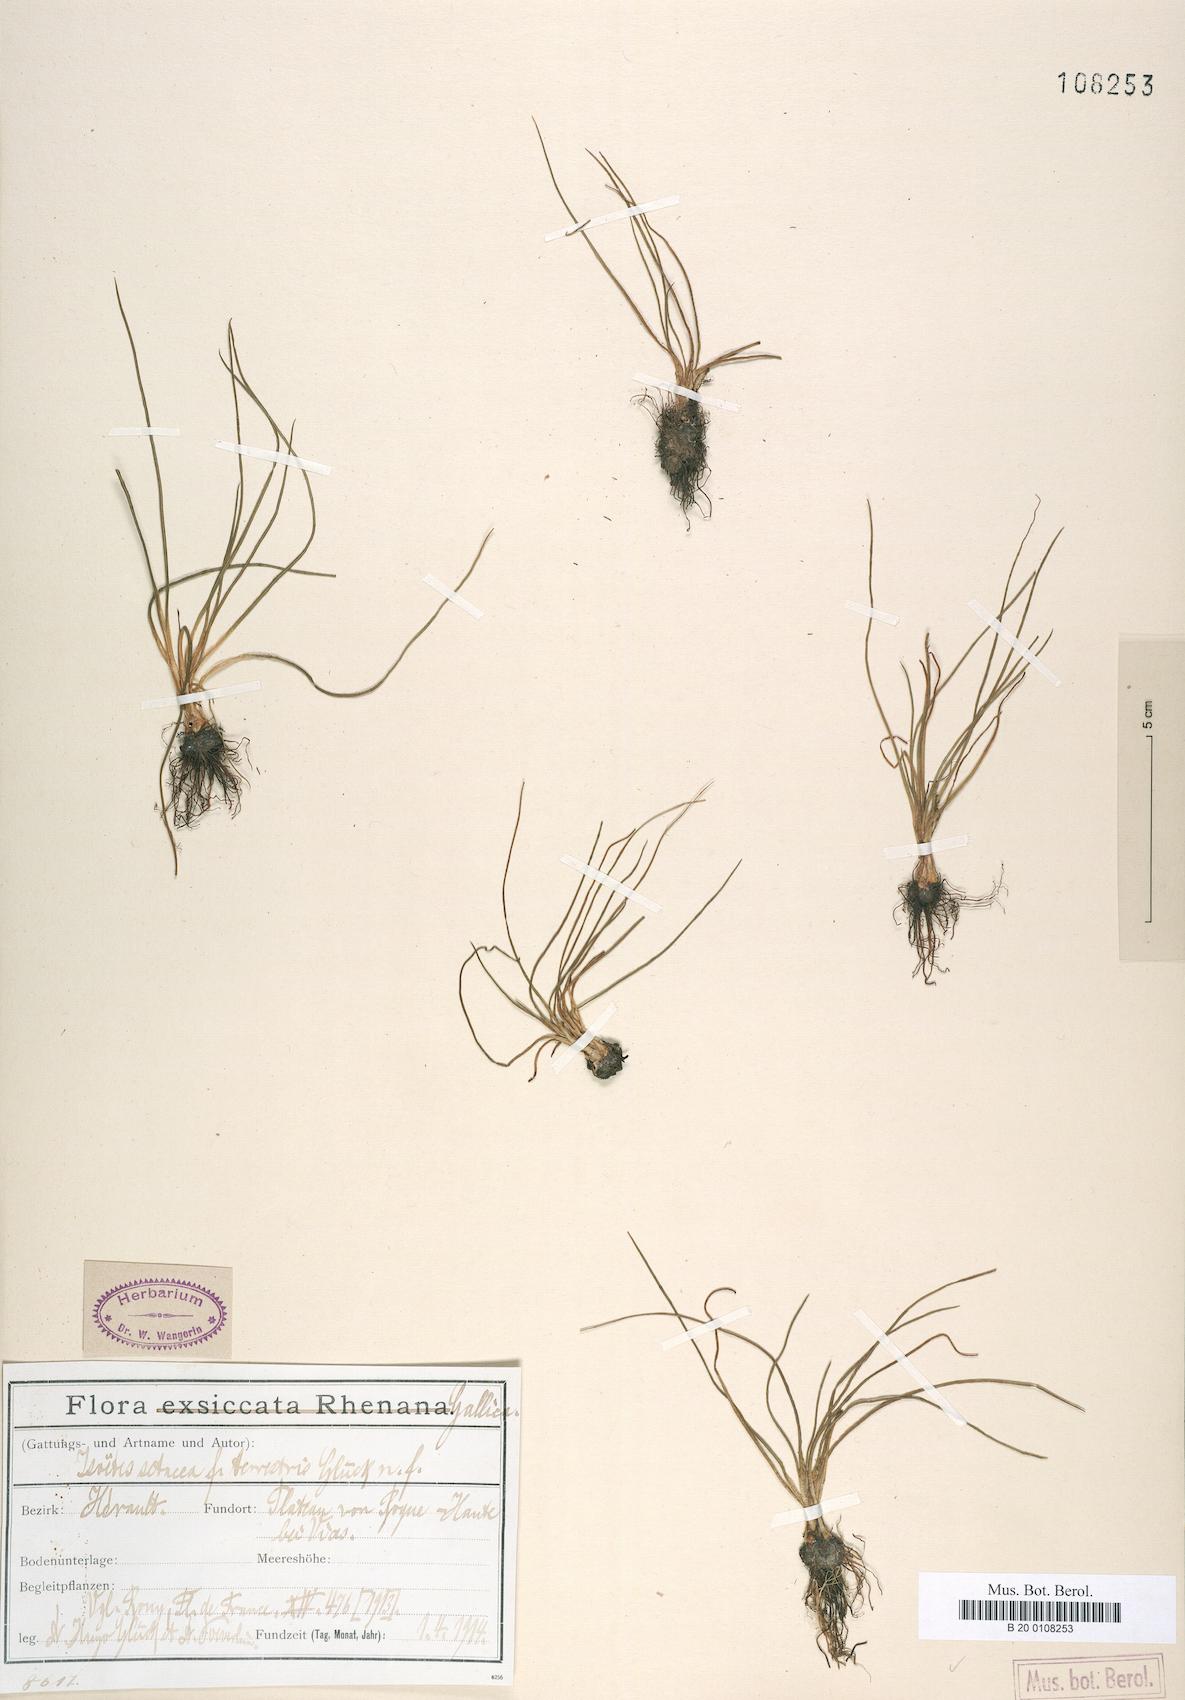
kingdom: Plantae
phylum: Tracheophyta
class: Lycopodiopsida
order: Isoetales
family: Isoetaceae
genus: Isoetes
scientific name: Isoetes lacustris
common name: Common quillwort
